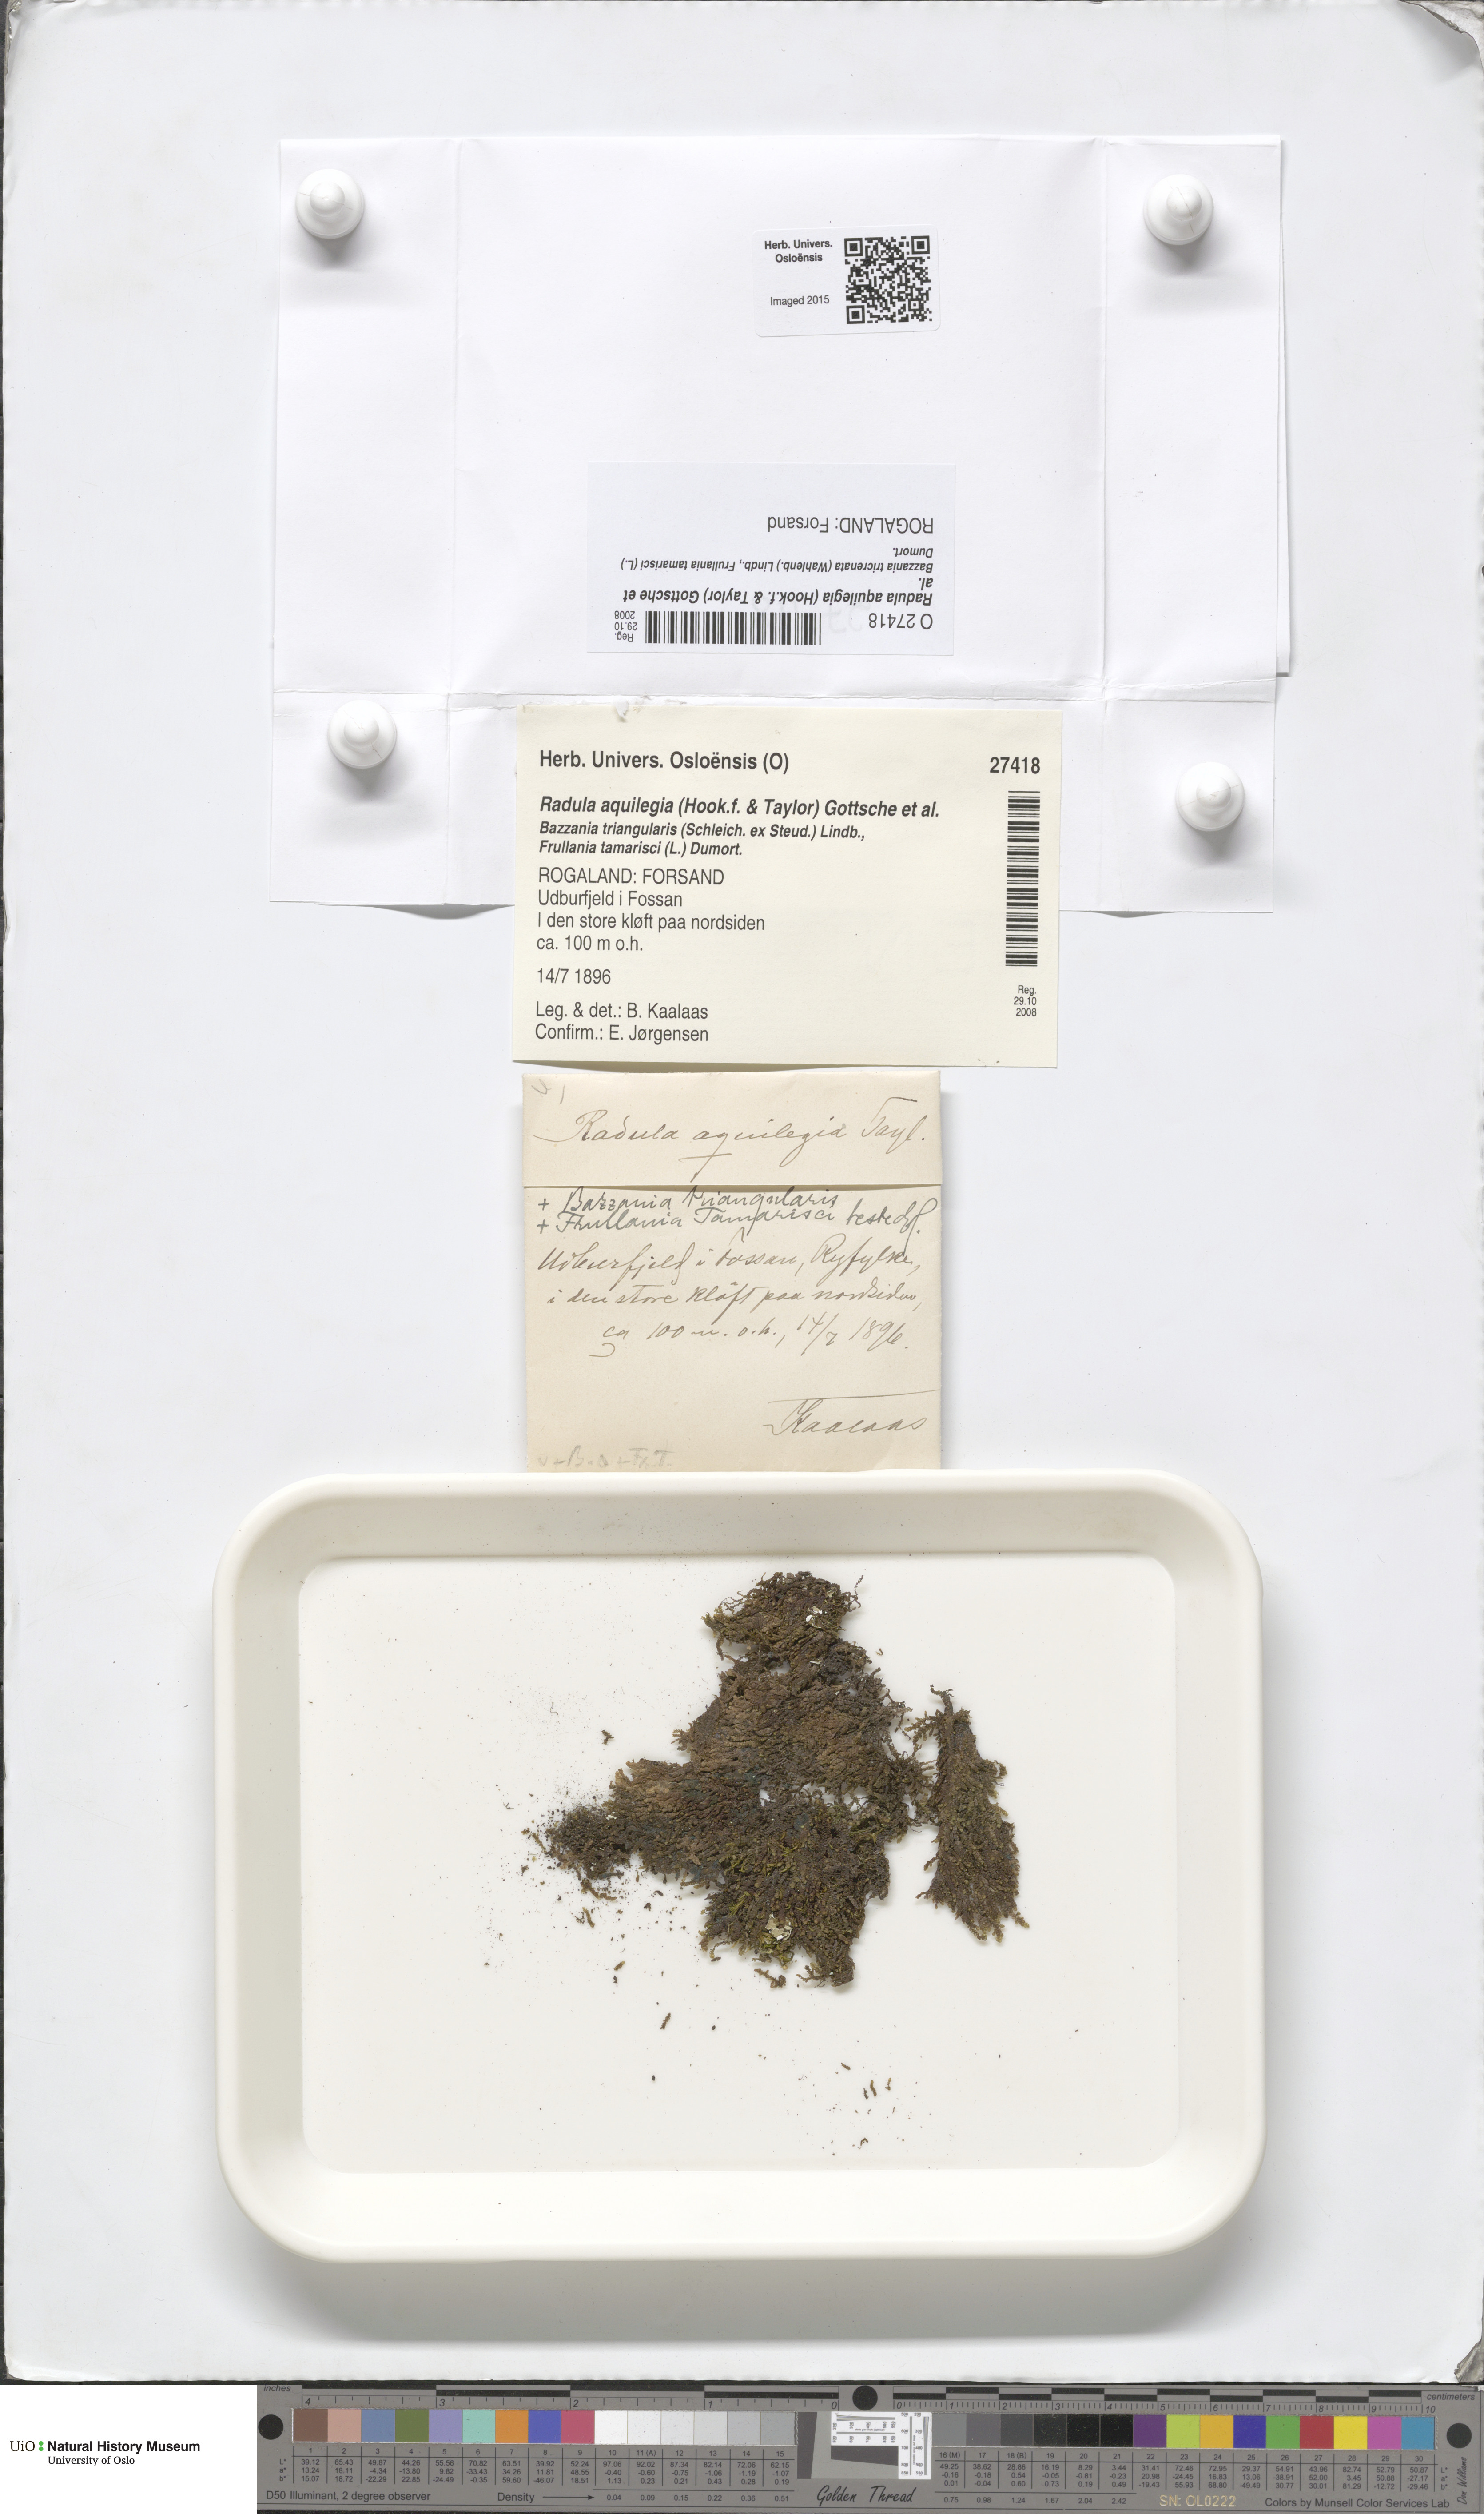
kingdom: Plantae
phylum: Marchantiophyta
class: Jungermanniopsida
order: Porellales
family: Radulaceae
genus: Radula
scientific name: Radula aquilegia
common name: Brown scalewort
